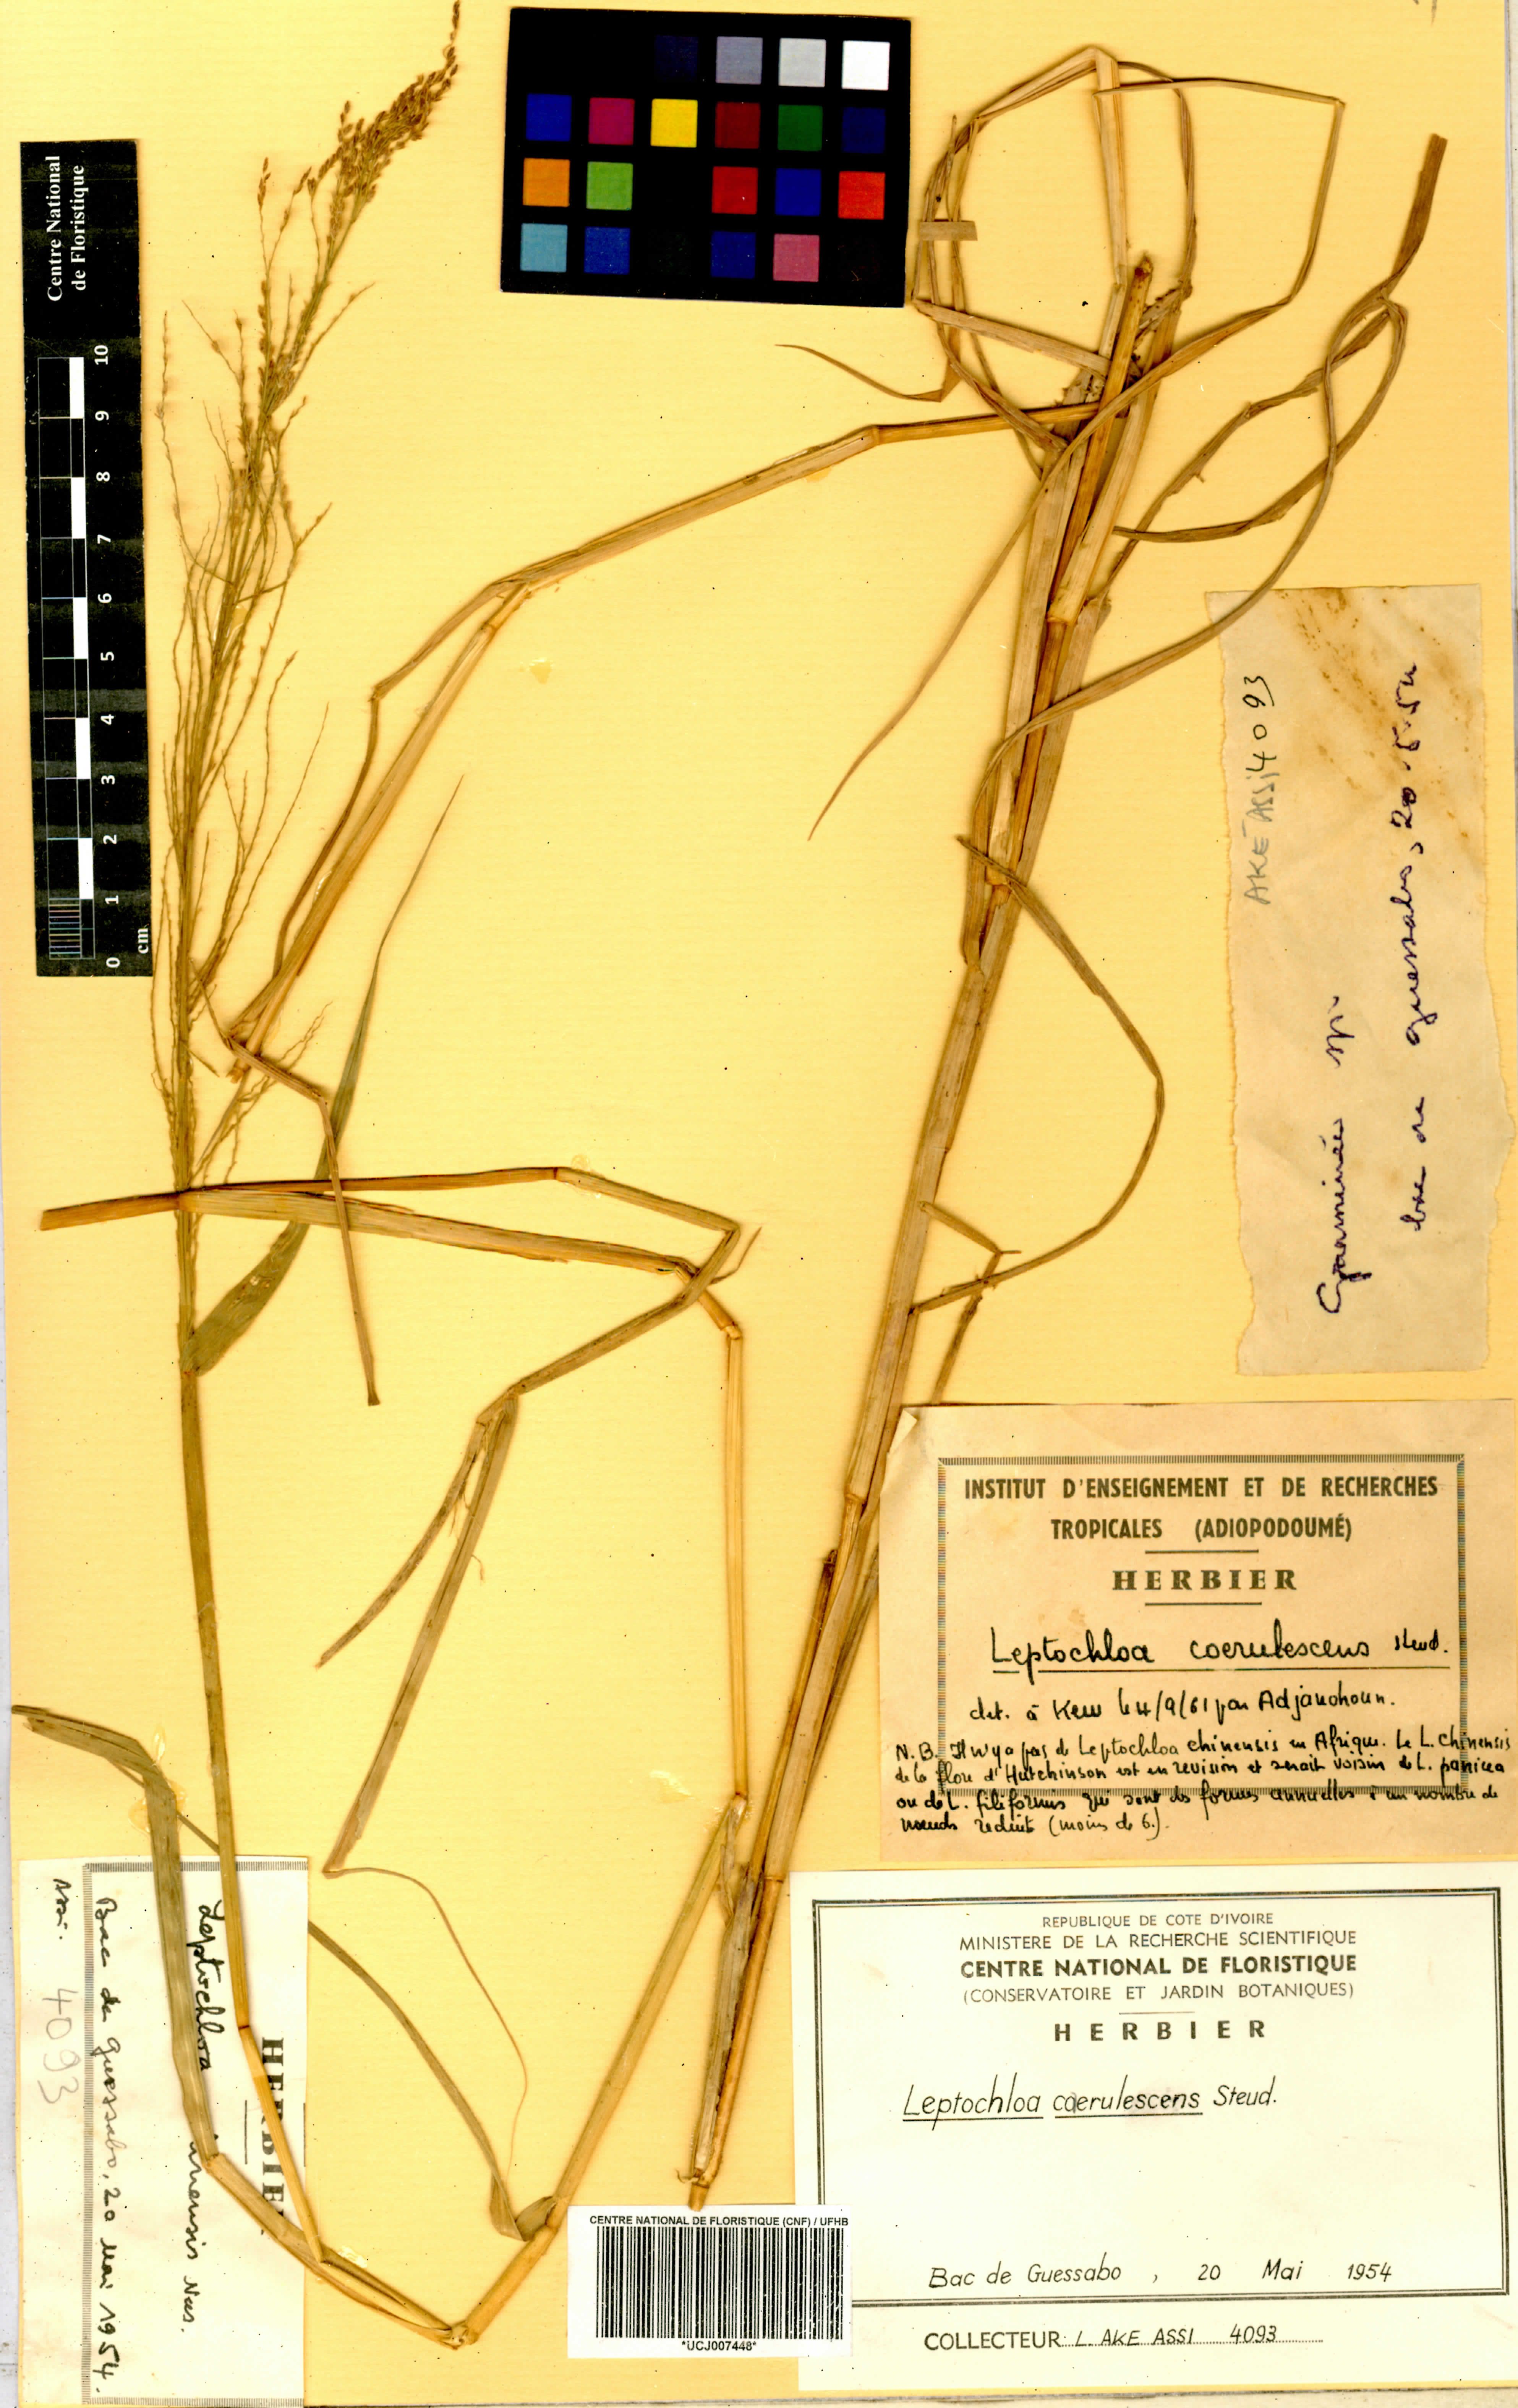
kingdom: Plantae
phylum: Tracheophyta
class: Liliopsida
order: Poales
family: Poaceae
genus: Leptochloa
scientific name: Leptochloa caerulescens
